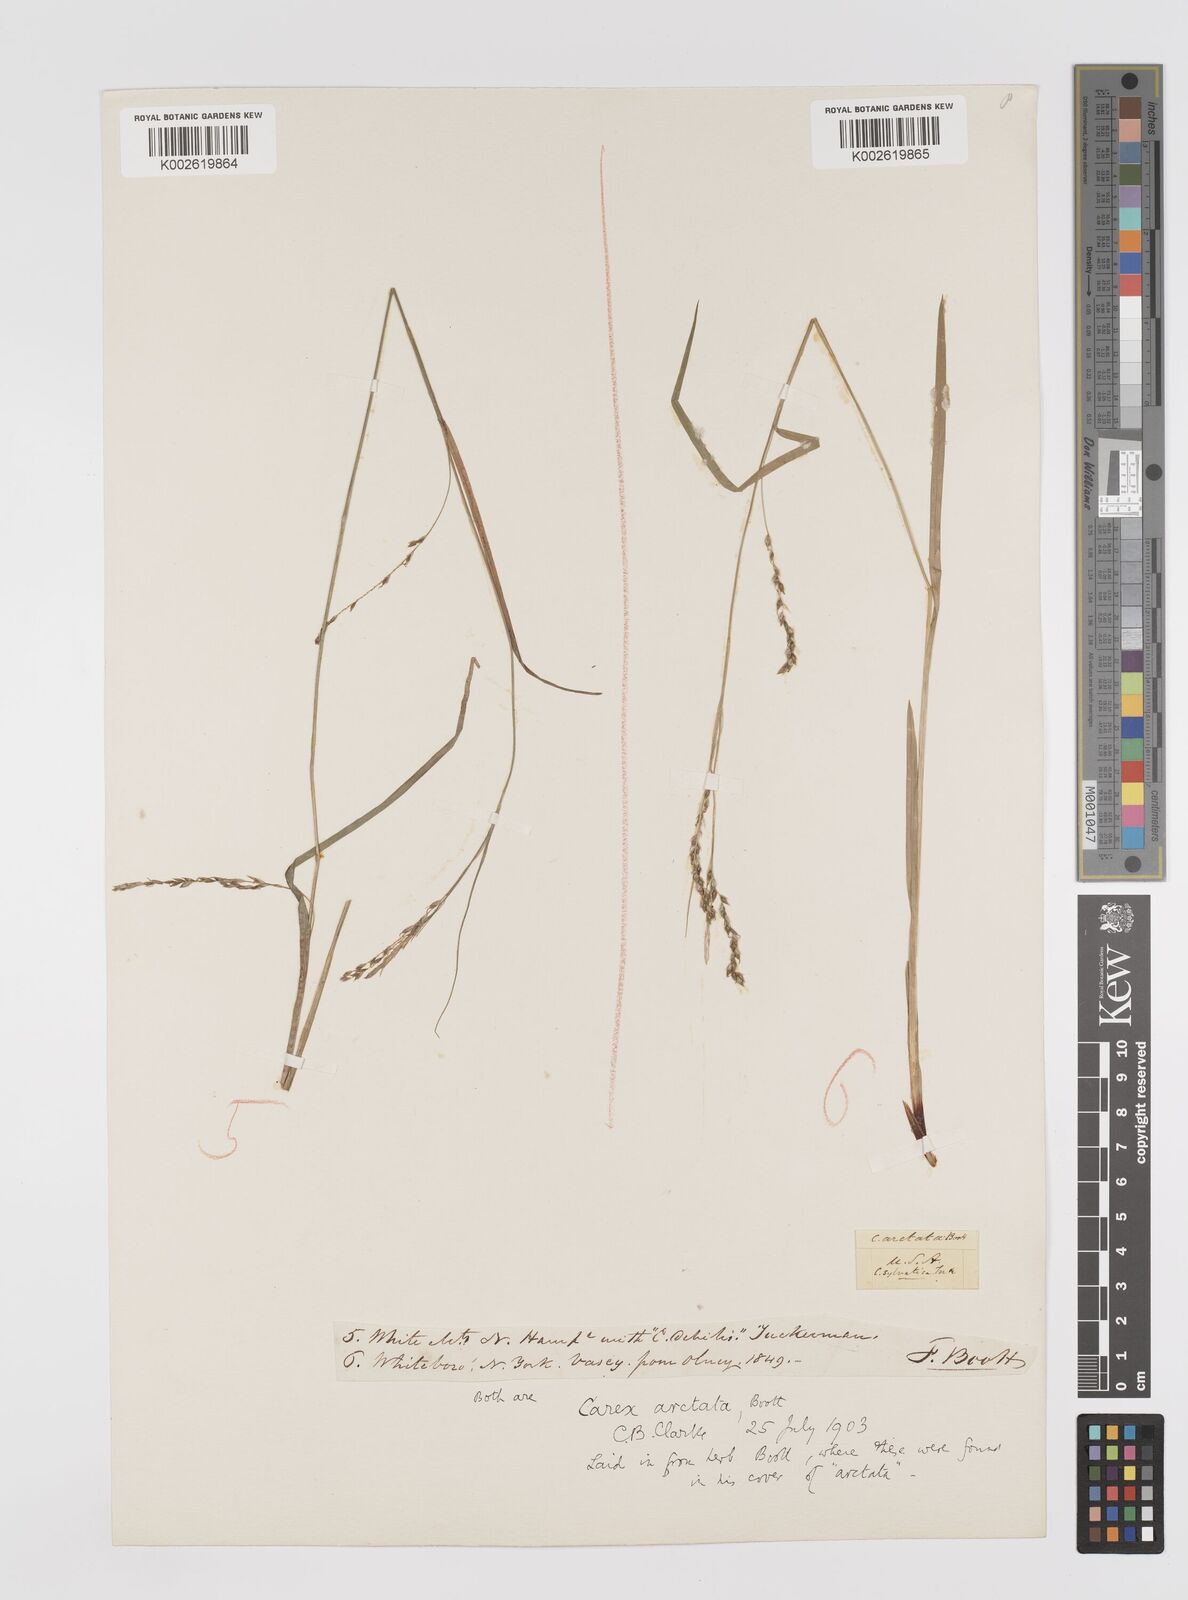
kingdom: Plantae
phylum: Tracheophyta
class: Liliopsida
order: Poales
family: Cyperaceae
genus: Carex
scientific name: Carex arctata
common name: Black sedge
